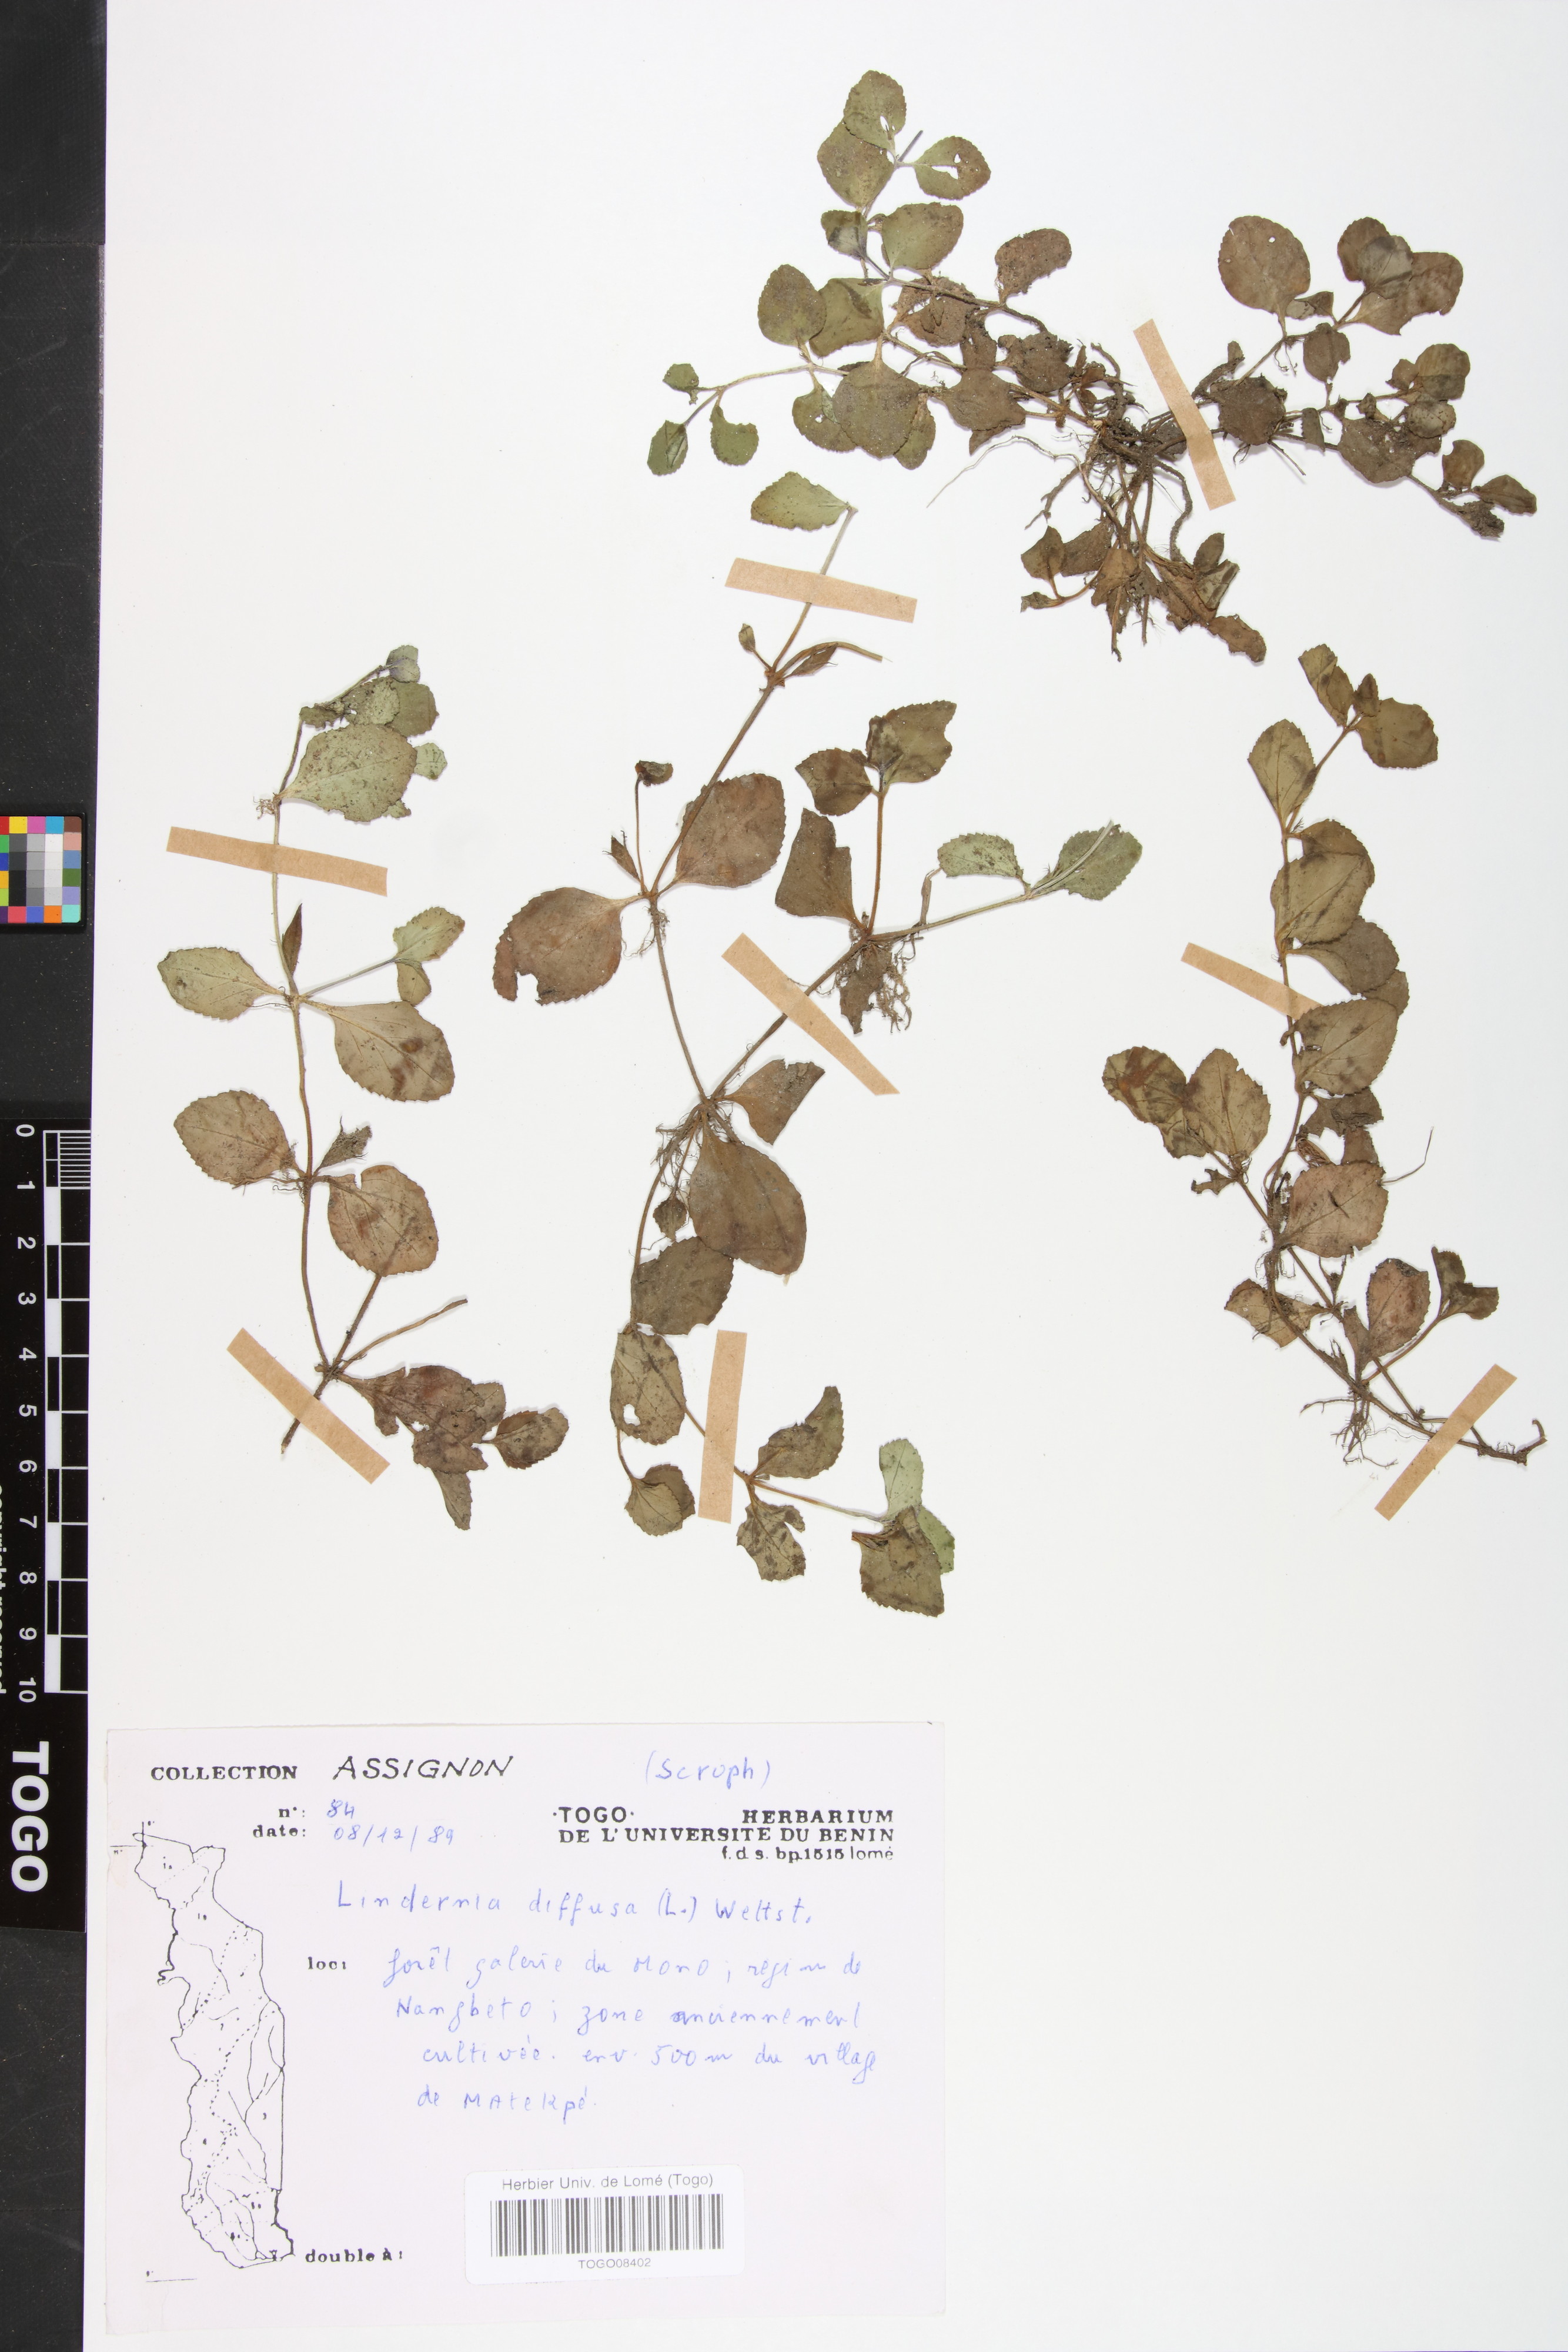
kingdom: Plantae
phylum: Tracheophyta
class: Magnoliopsida
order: Lamiales
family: Linderniaceae
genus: Vandellia
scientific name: Vandellia diffusa
